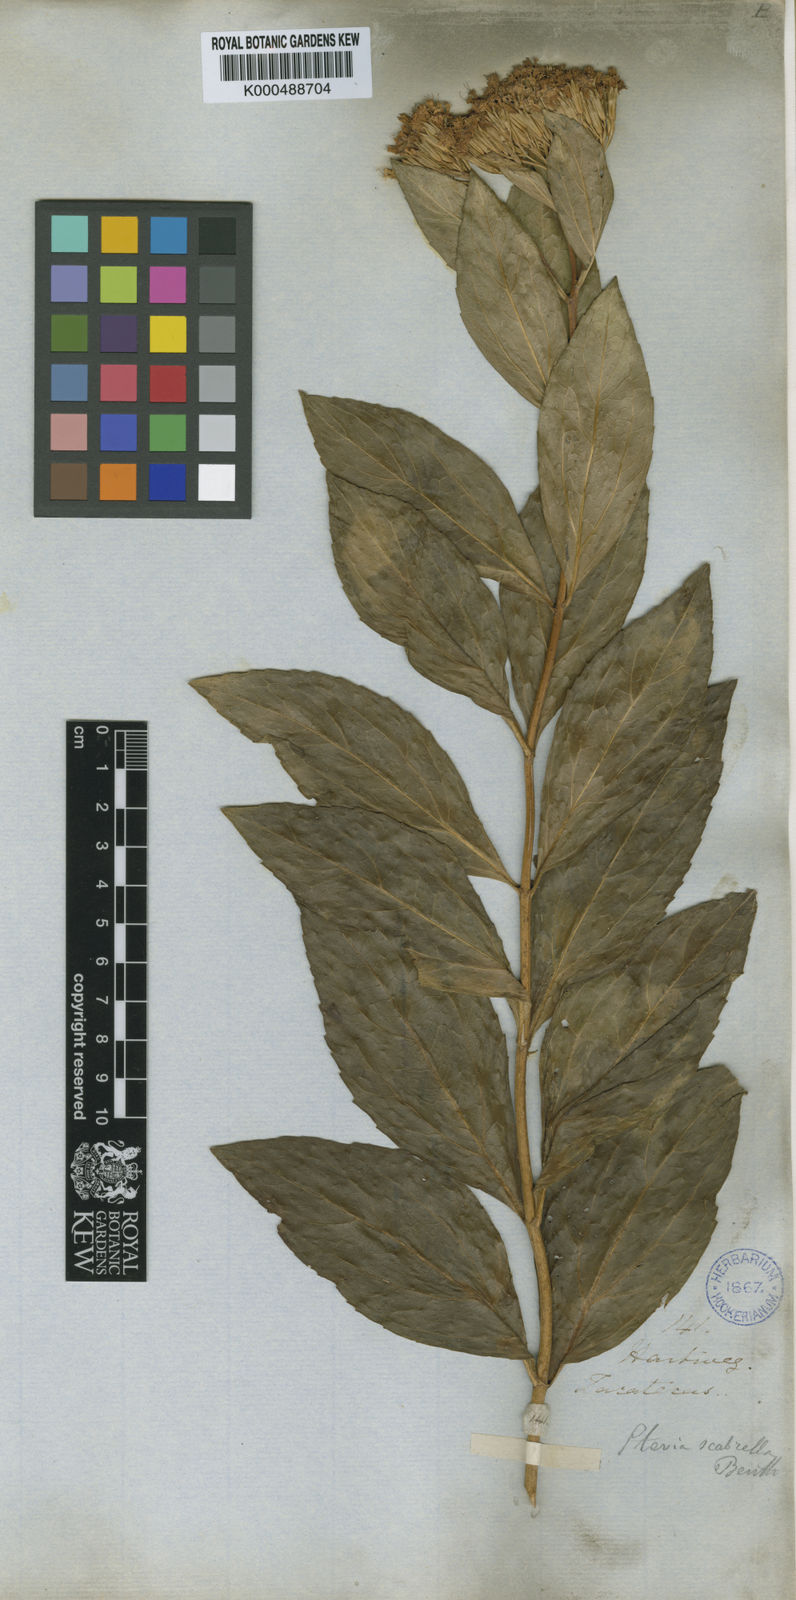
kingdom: Plantae
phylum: Tracheophyta
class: Magnoliopsida
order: Asterales
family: Asteraceae
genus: Stevia
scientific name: Stevia scabrella
